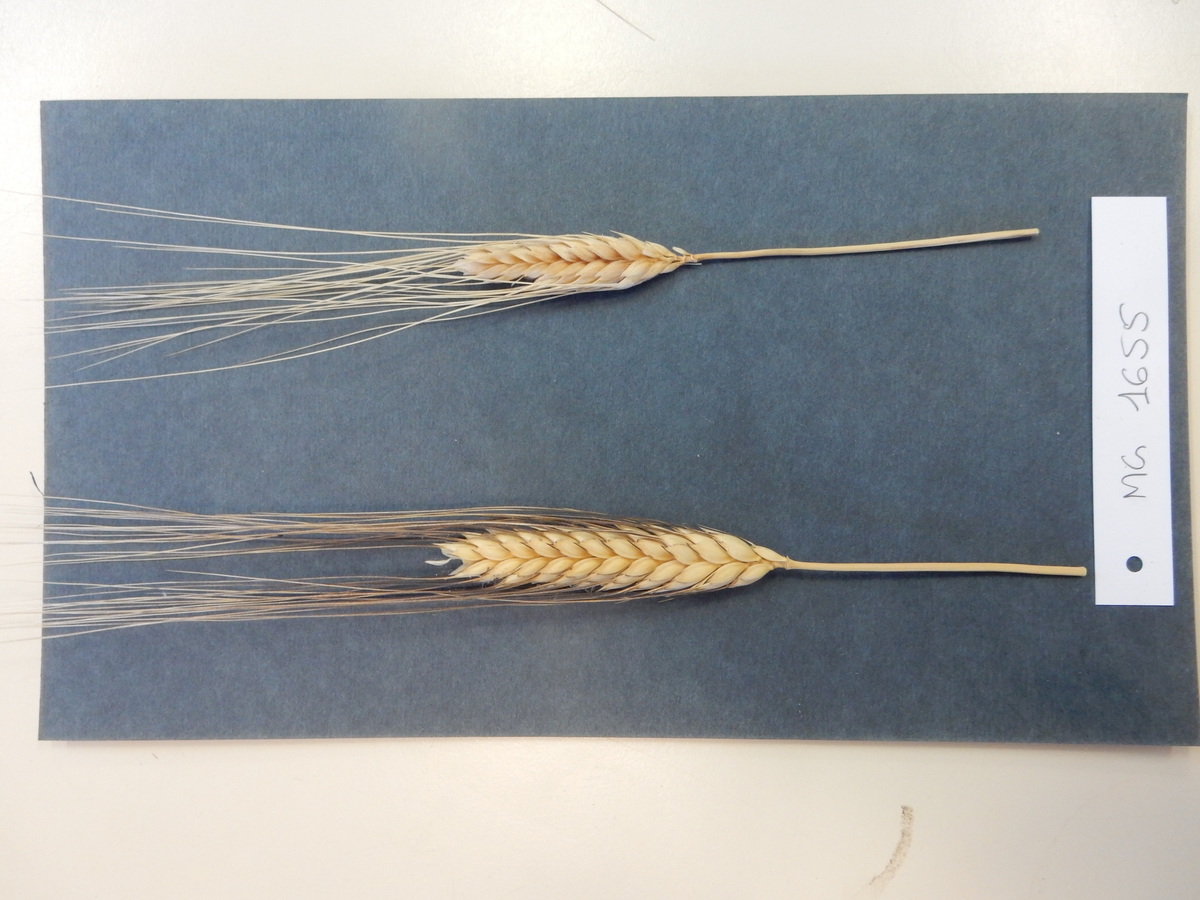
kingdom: Plantae
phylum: Tracheophyta
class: Liliopsida
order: Poales
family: Poaceae
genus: Triticum
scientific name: Triticum turgidum
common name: Wheat
